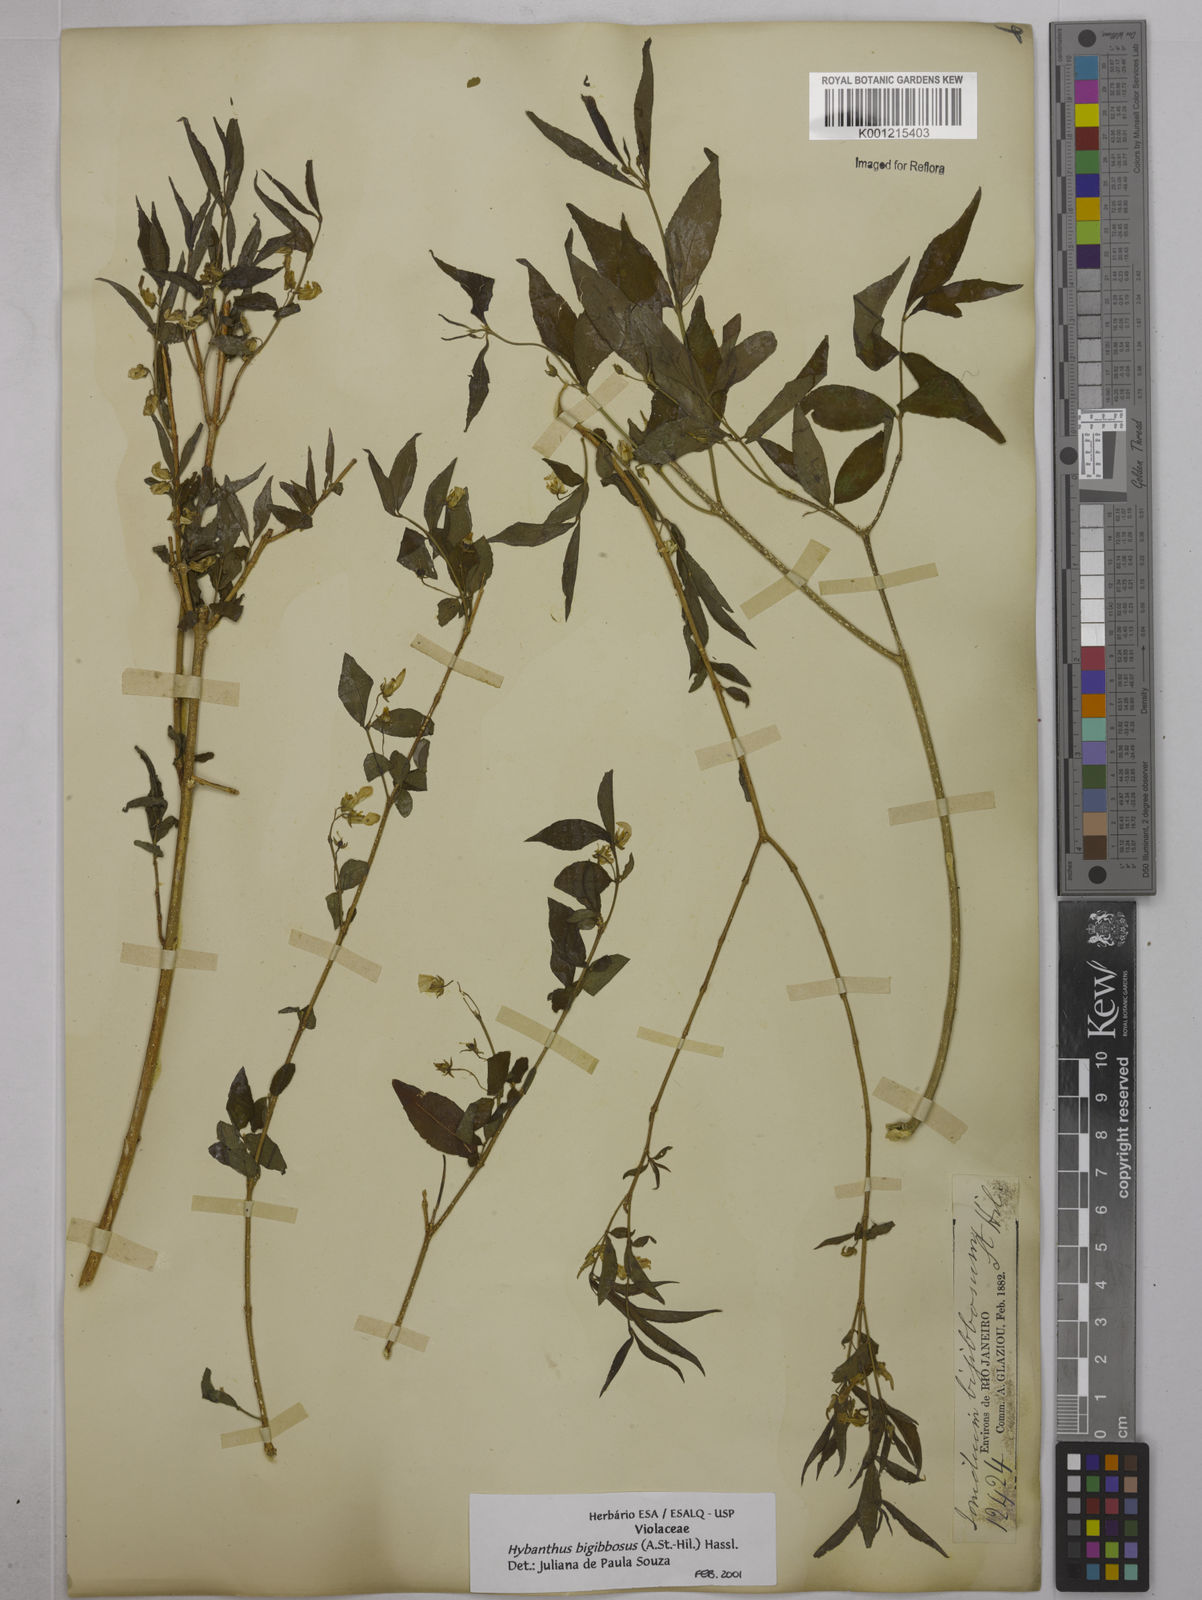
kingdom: Plantae
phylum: Tracheophyta
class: Magnoliopsida
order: Malpighiales
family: Violaceae
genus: Pombalia
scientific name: Pombalia bigibbosa
